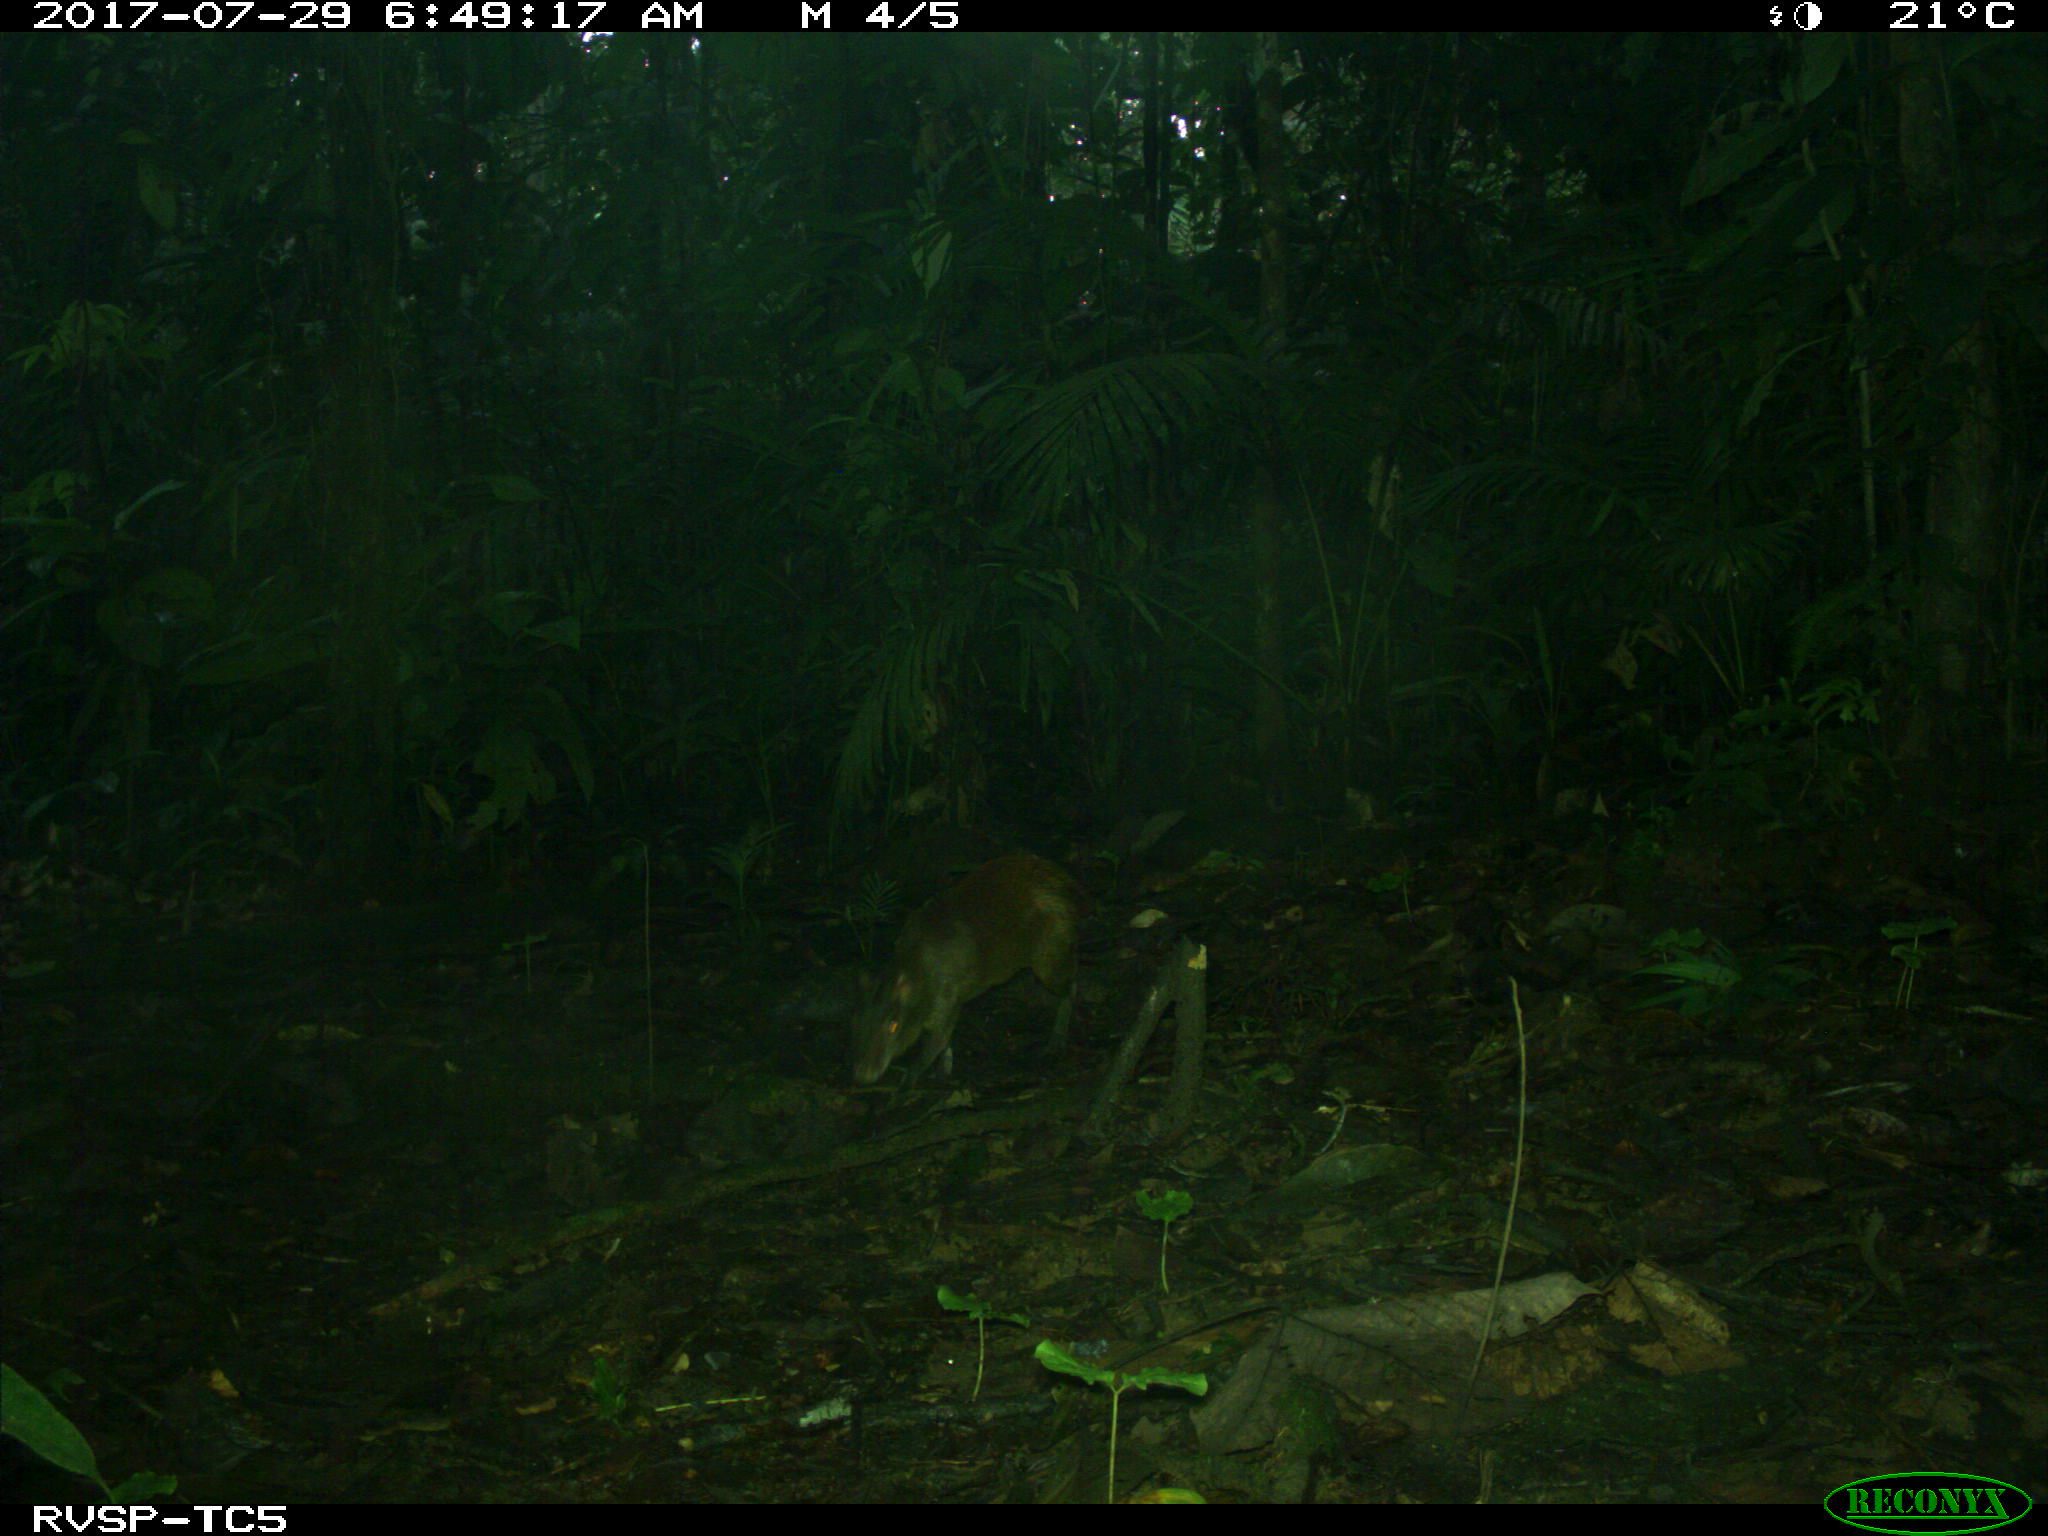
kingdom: Animalia
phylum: Chordata
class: Mammalia
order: Rodentia
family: Dasyproctidae
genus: Dasyprocta
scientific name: Dasyprocta punctata
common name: Central american agouti
